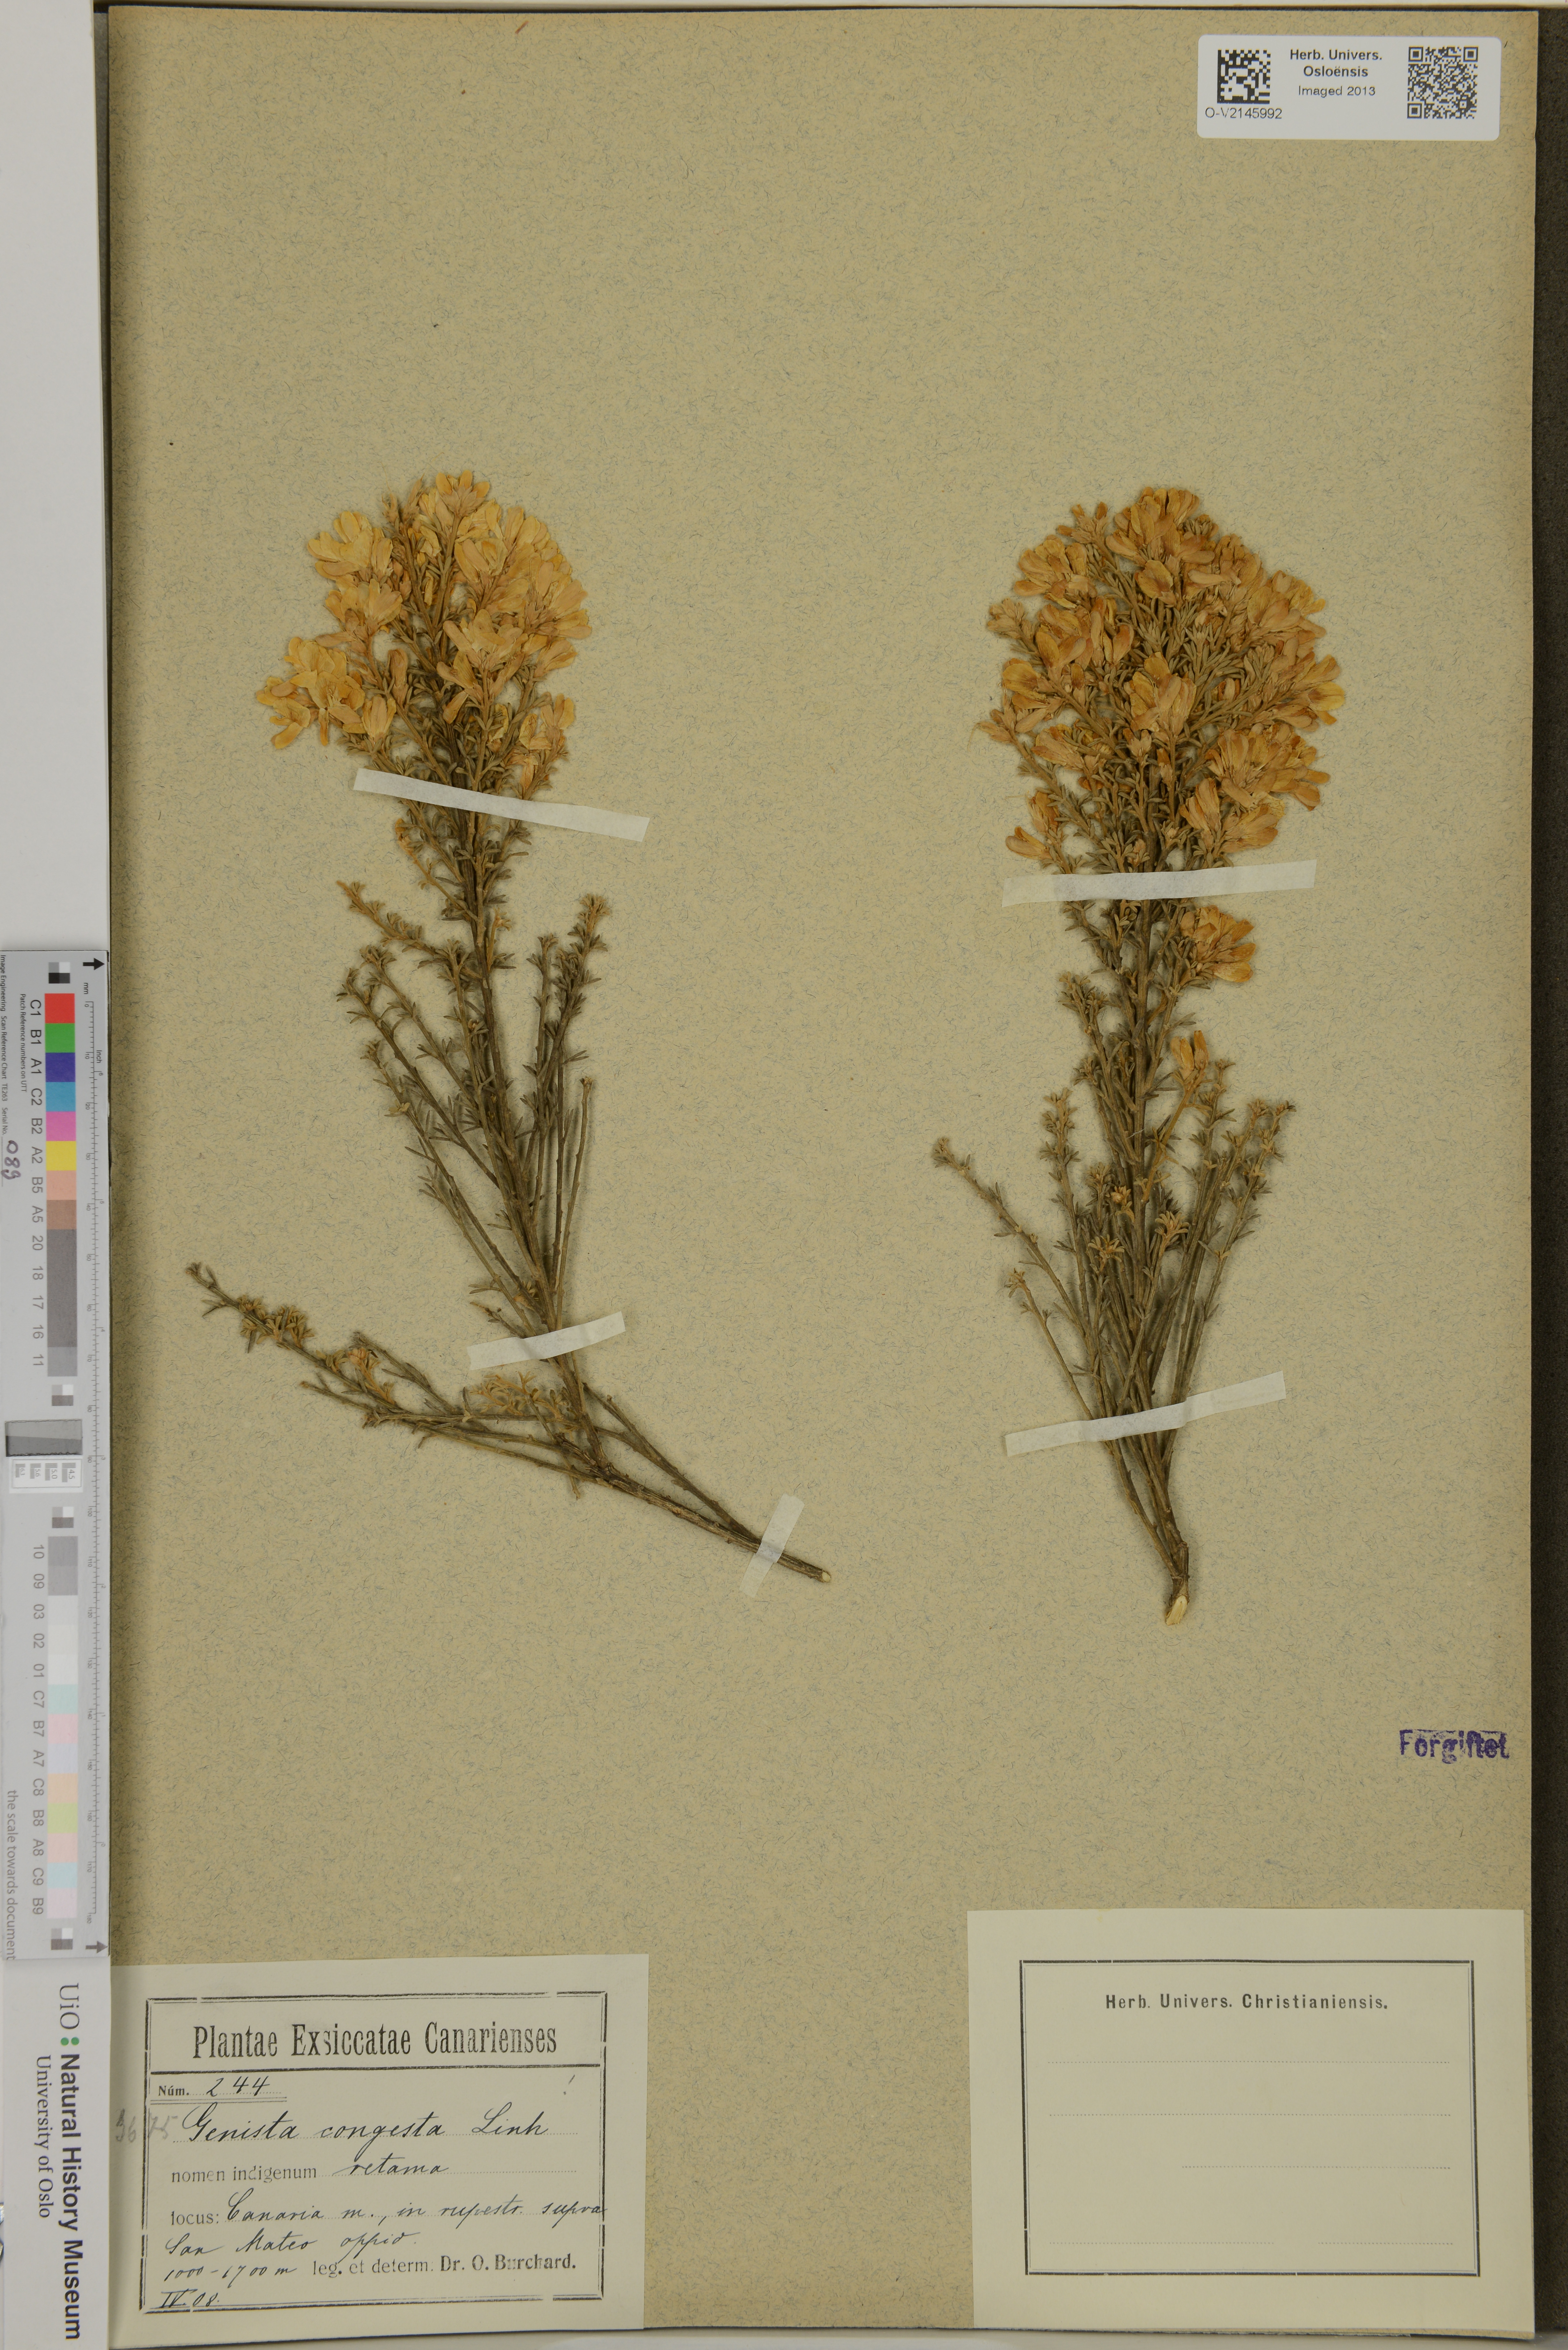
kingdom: Plantae
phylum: Tracheophyta
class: Magnoliopsida
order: Fabales
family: Fabaceae
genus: Genista
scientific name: Genista tenera
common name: Madeira broom
